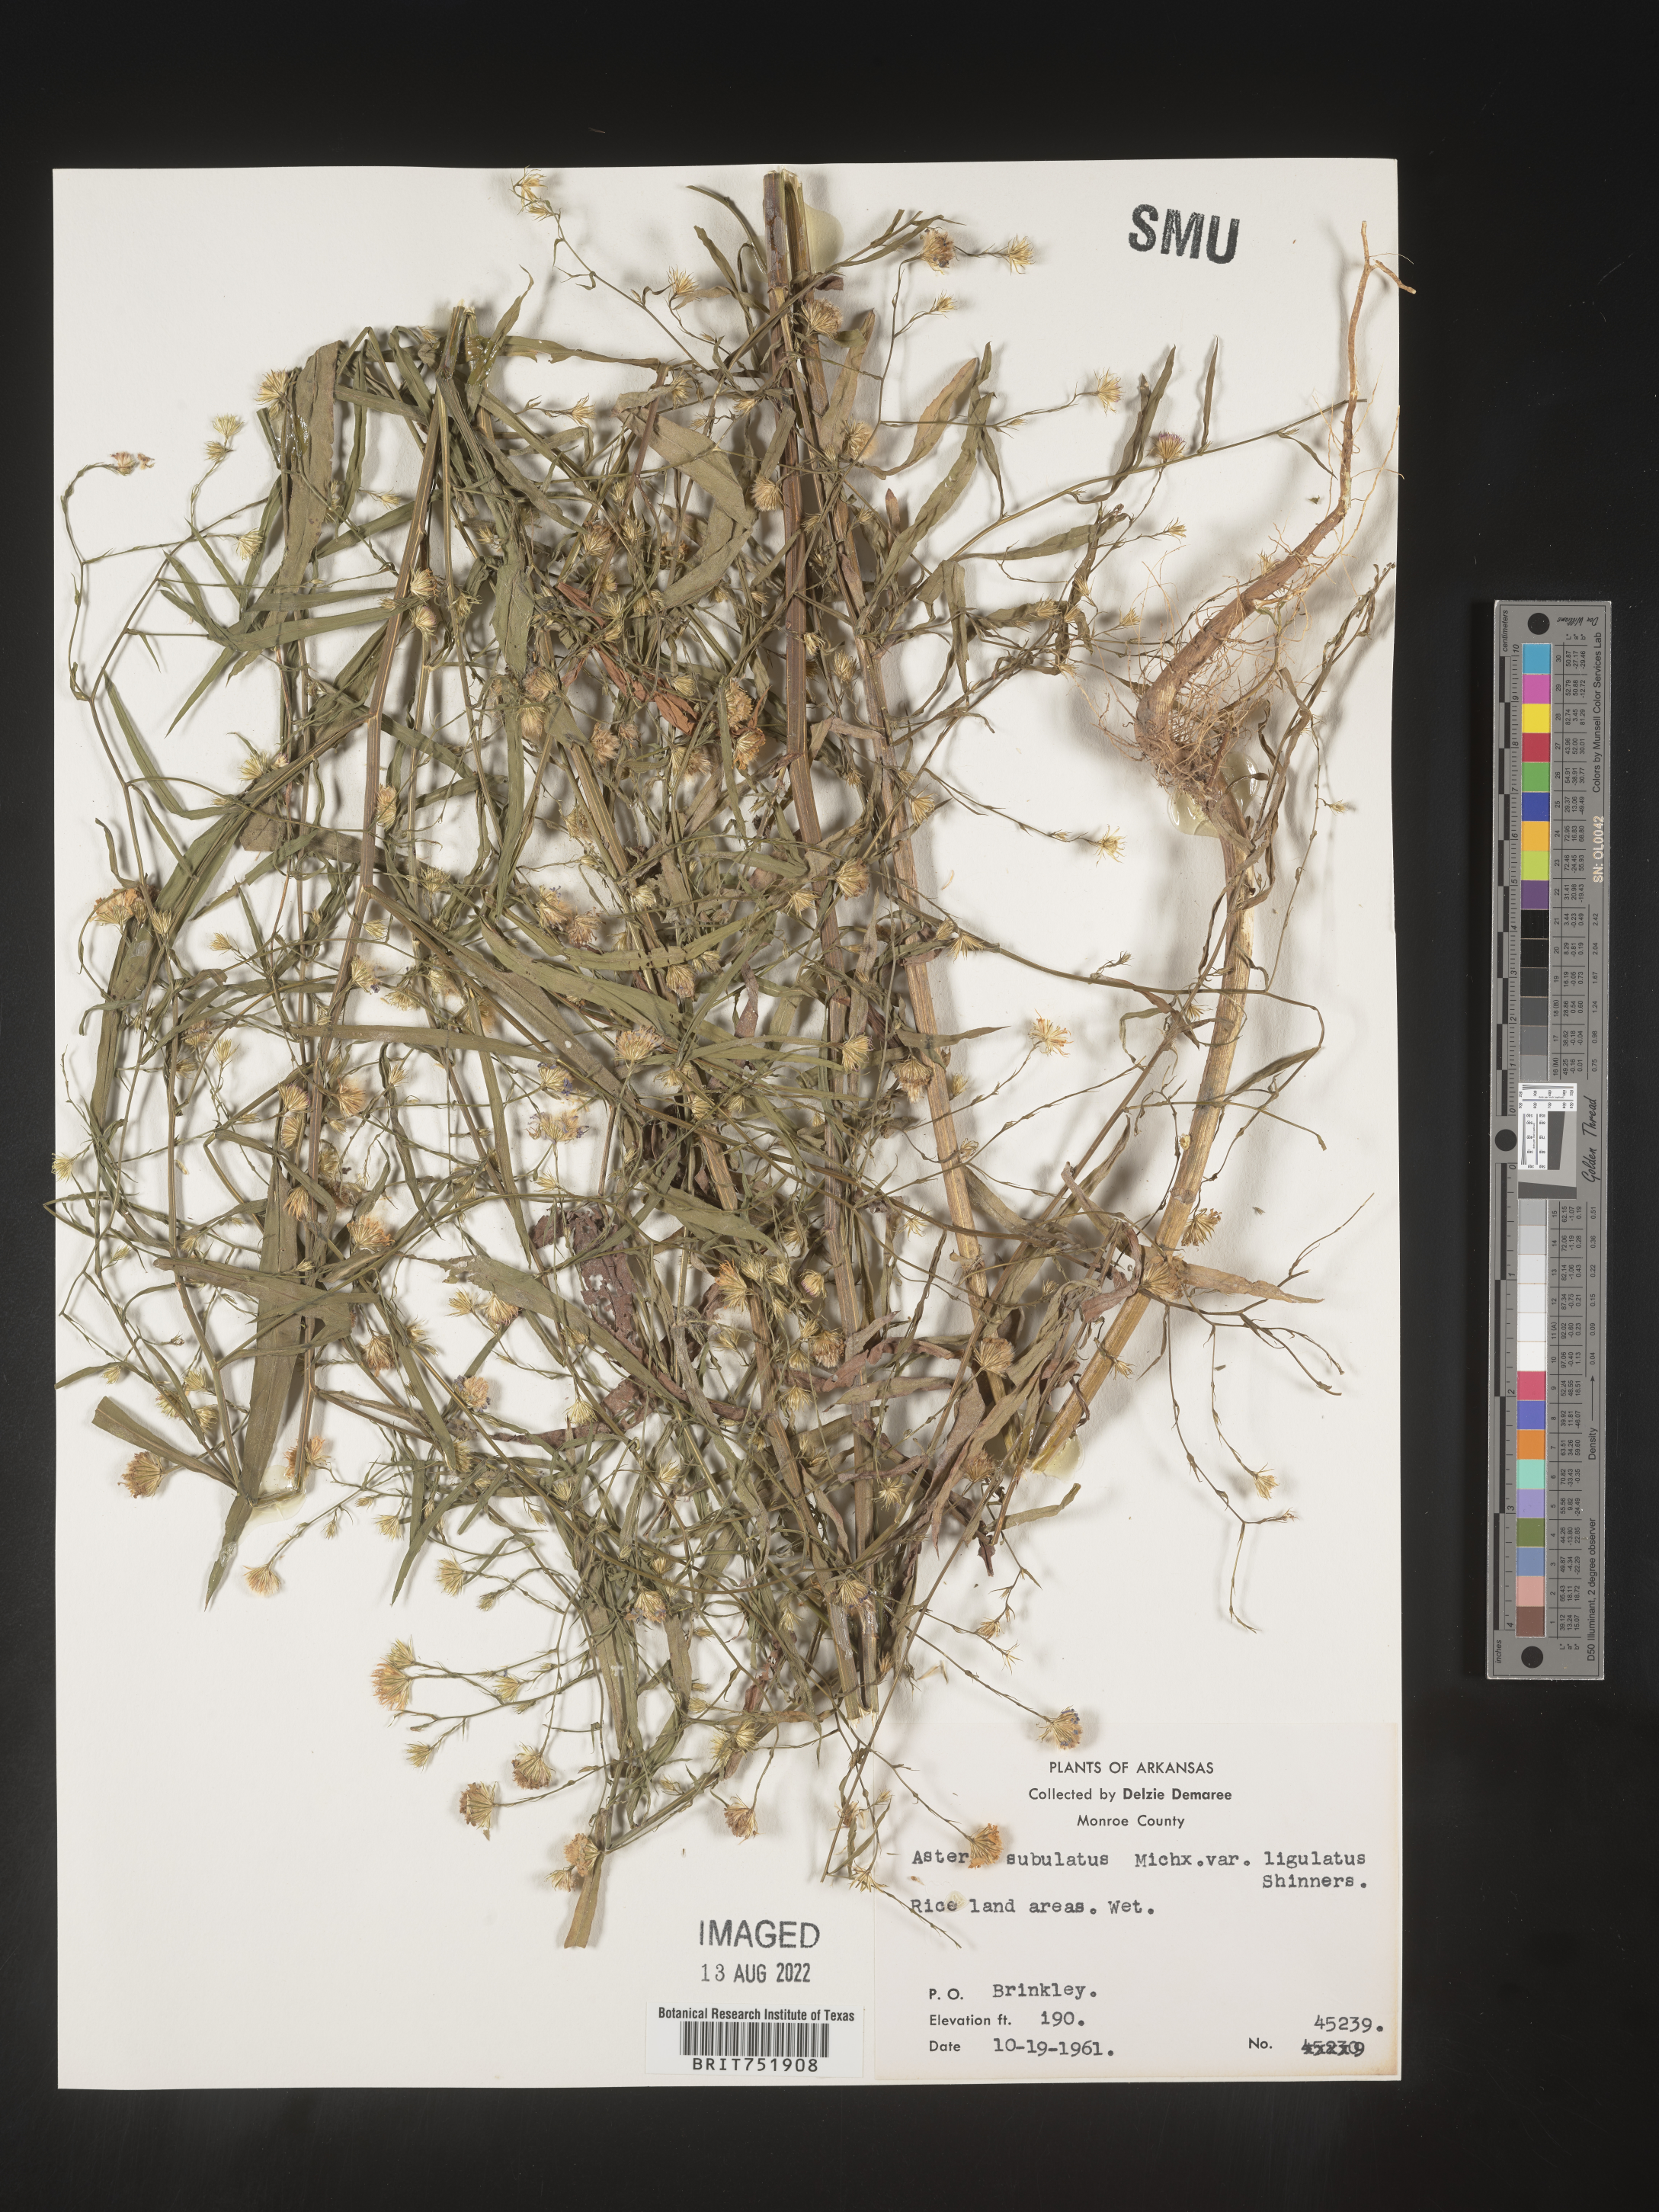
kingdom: Plantae
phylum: Tracheophyta
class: Magnoliopsida
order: Asterales
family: Asteraceae
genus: Symphyotrichum
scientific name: Symphyotrichum divaricatum
